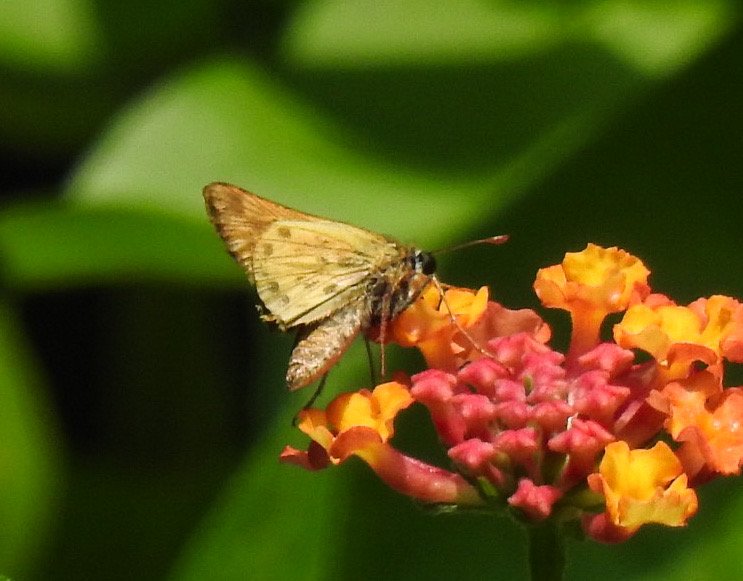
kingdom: Animalia
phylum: Arthropoda
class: Insecta
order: Lepidoptera
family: Hesperiidae
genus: Hylephila
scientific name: Hylephila phyleus
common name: Fiery Skipper
